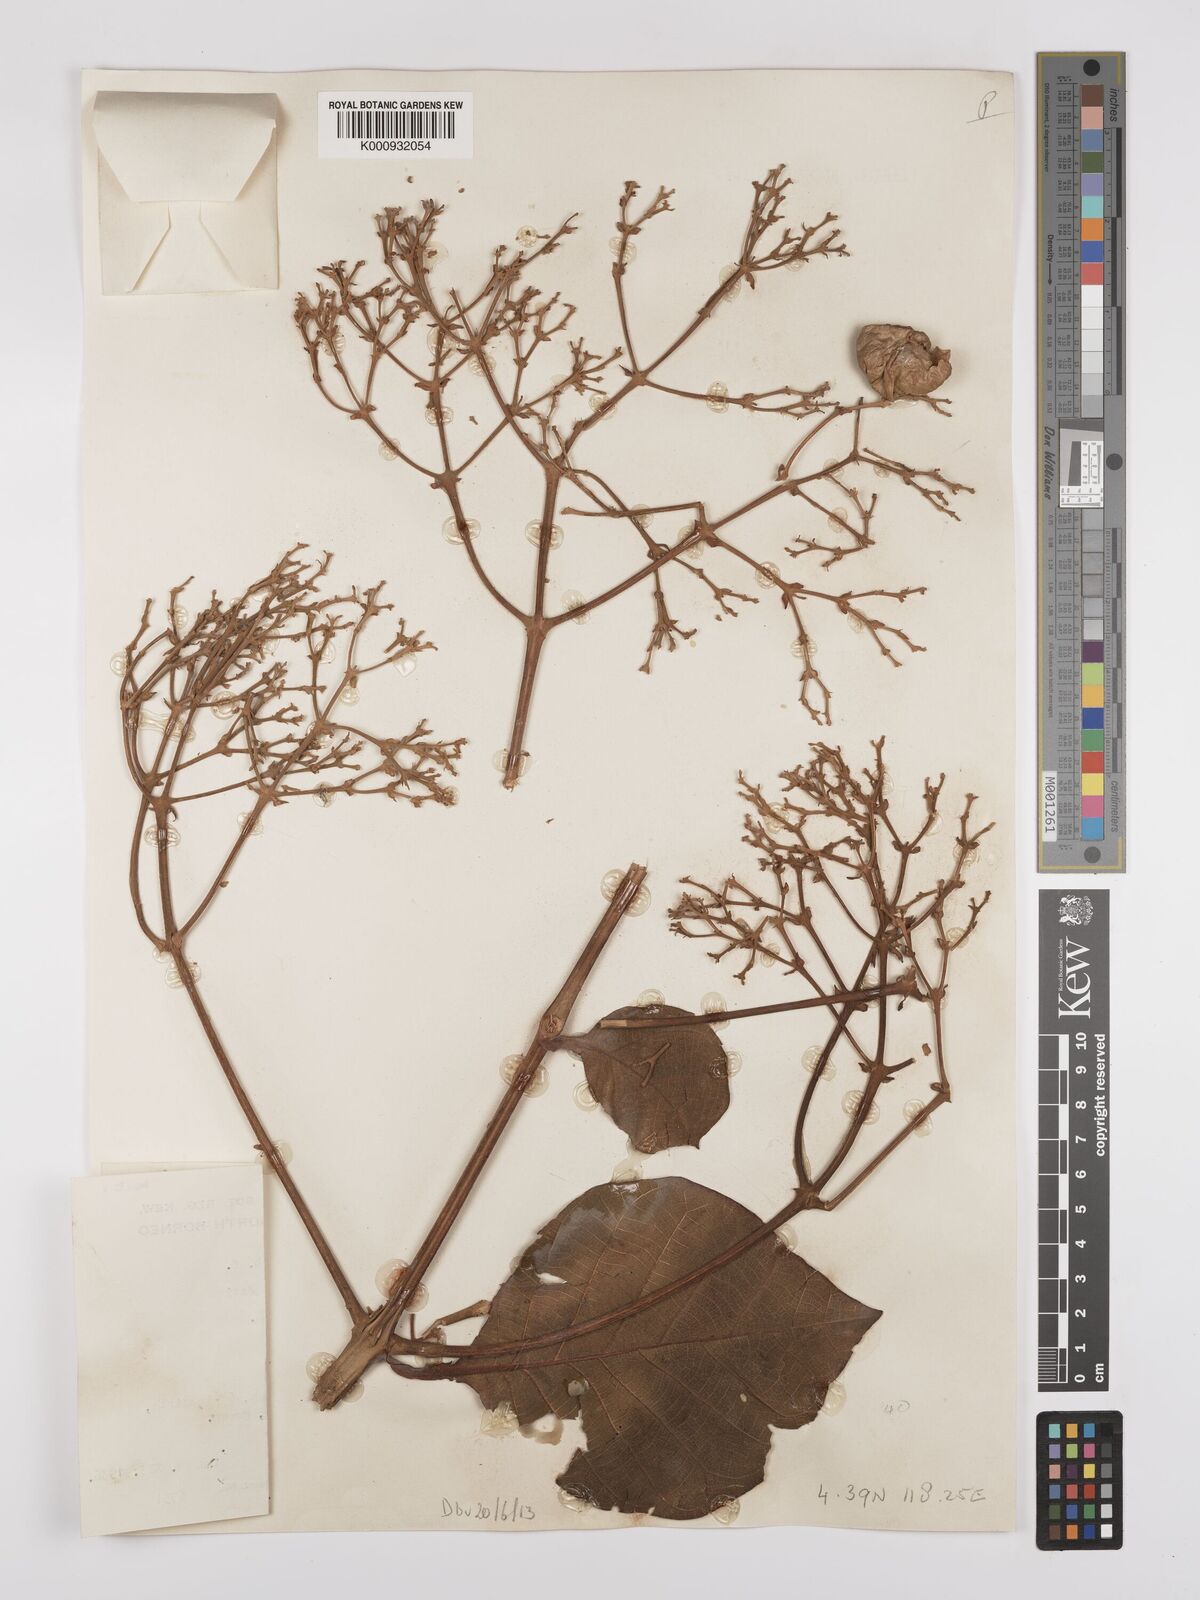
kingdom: Plantae
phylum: Tracheophyta
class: Magnoliopsida
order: Lamiales
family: Lamiaceae
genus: Tectona
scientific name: Tectona grandis
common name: Teak
